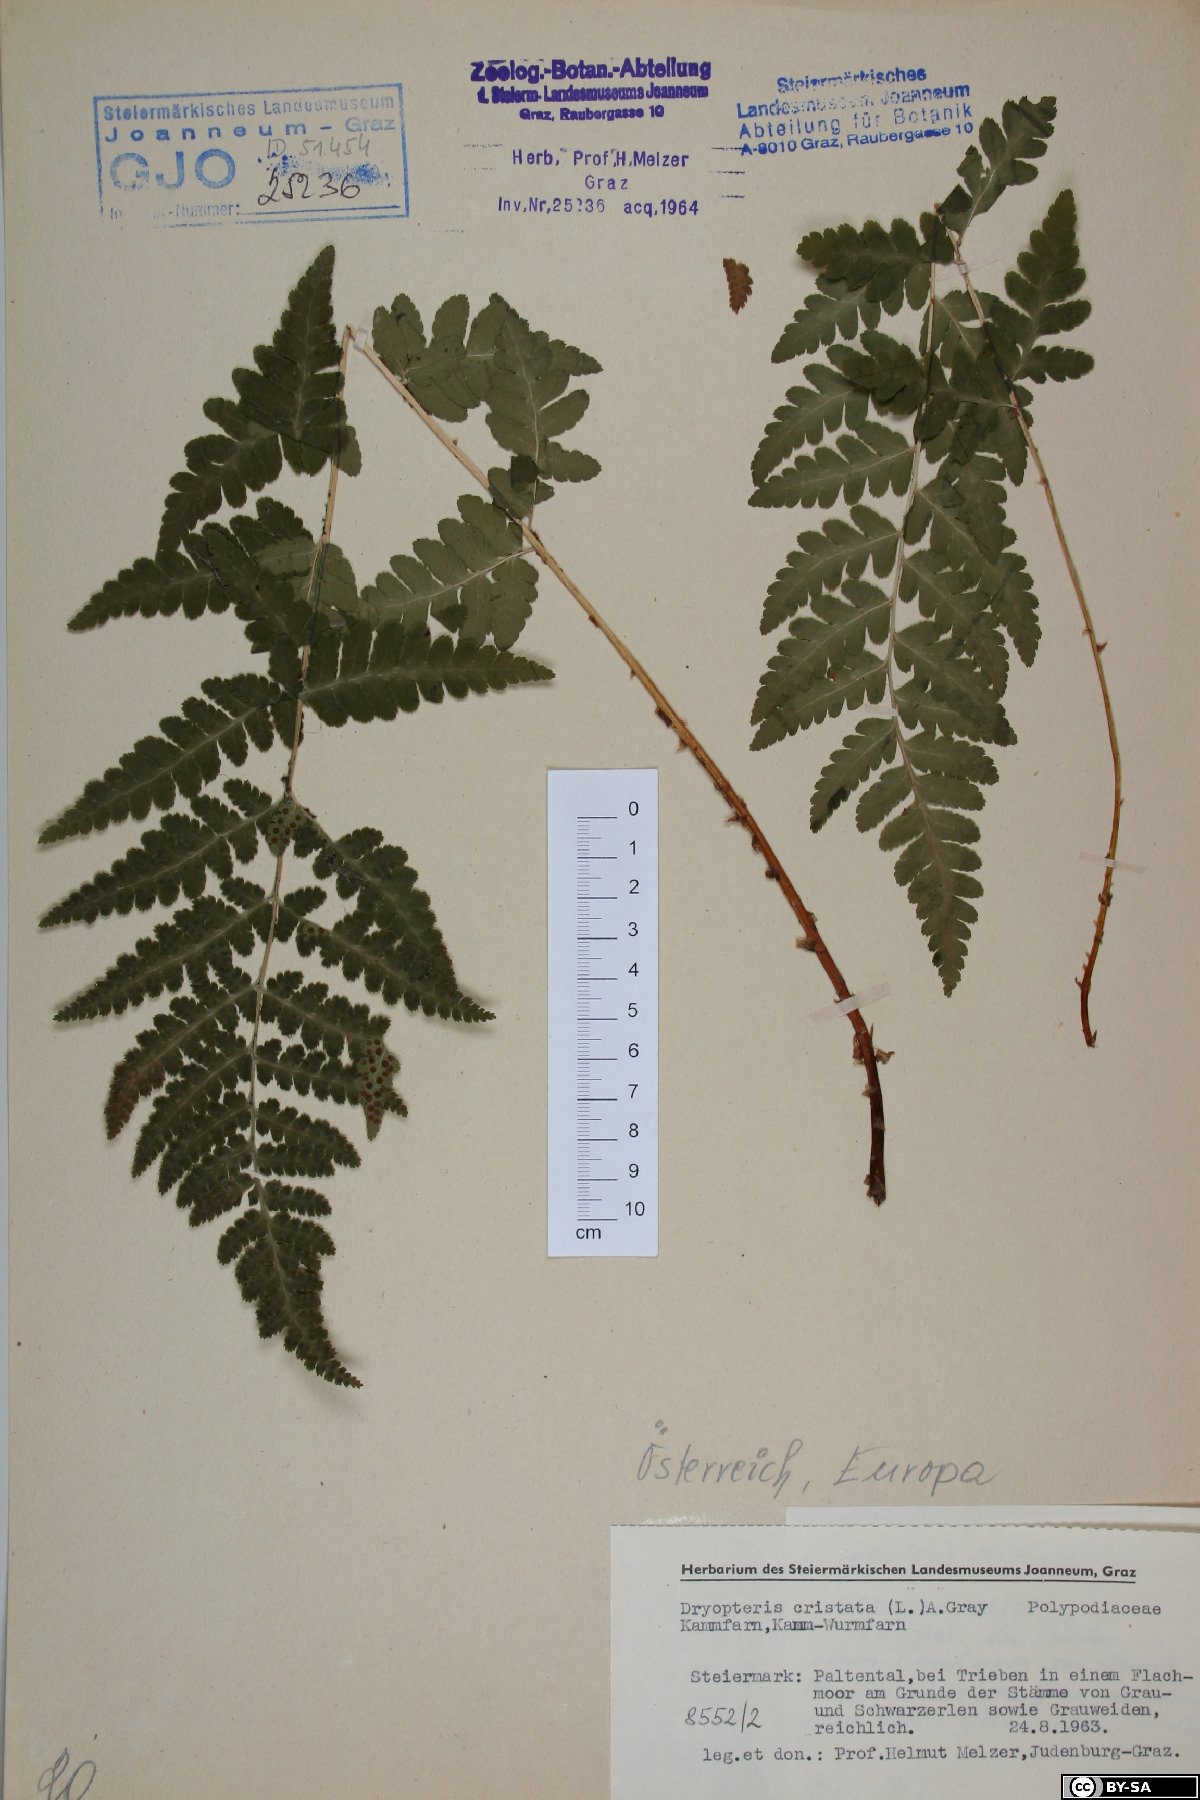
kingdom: Plantae
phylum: Tracheophyta
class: Polypodiopsida
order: Polypodiales
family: Dryopteridaceae
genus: Dryopteris
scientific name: Dryopteris cristata
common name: Crested wood fern
